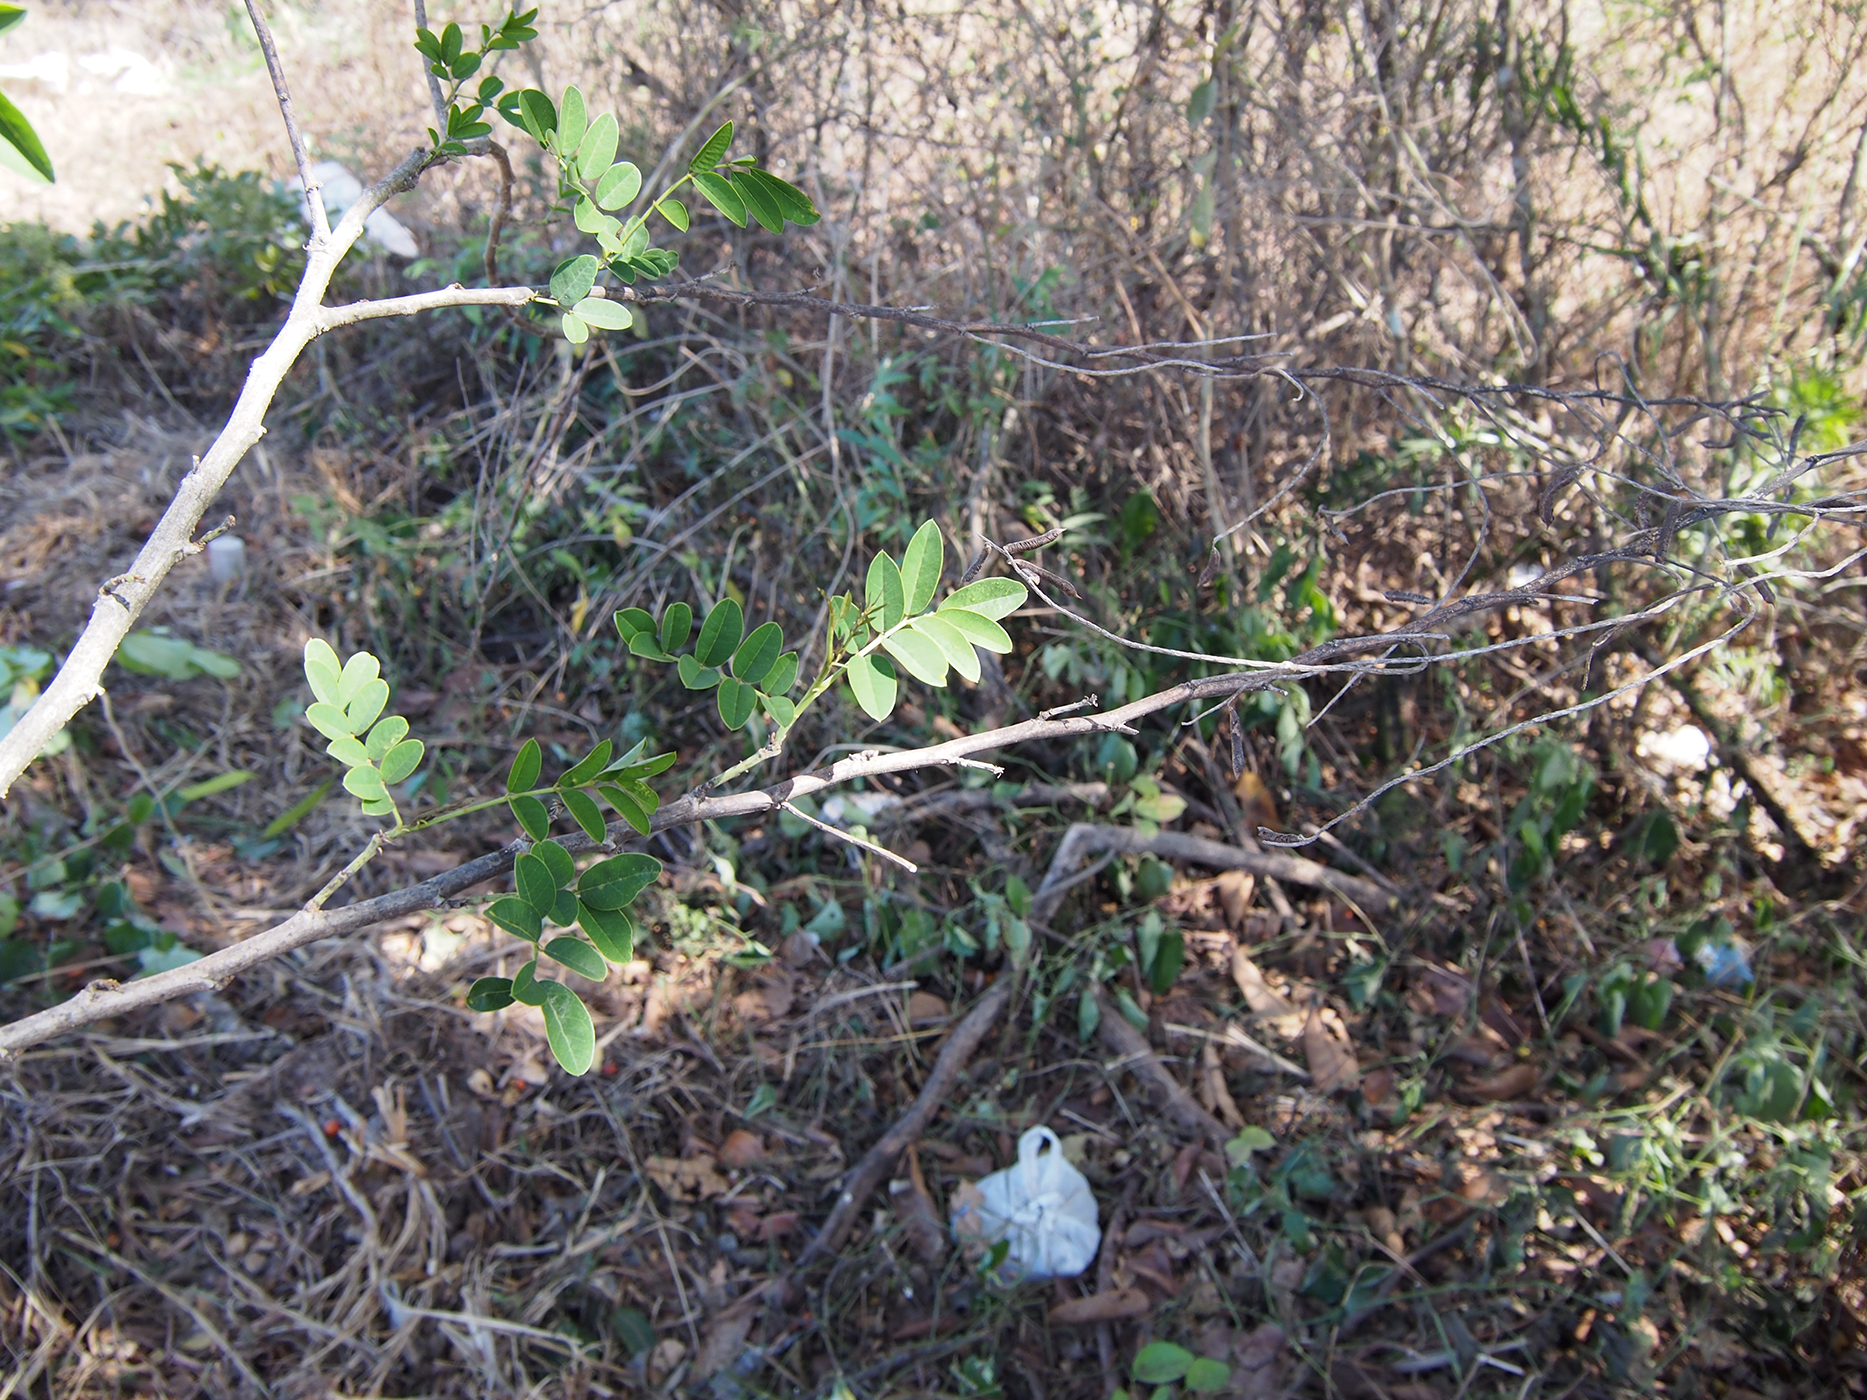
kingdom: Plantae
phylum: Tracheophyta
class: Magnoliopsida
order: Fabales
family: Fabaceae
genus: Indigofera
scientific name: Indigofera zollingeriana
